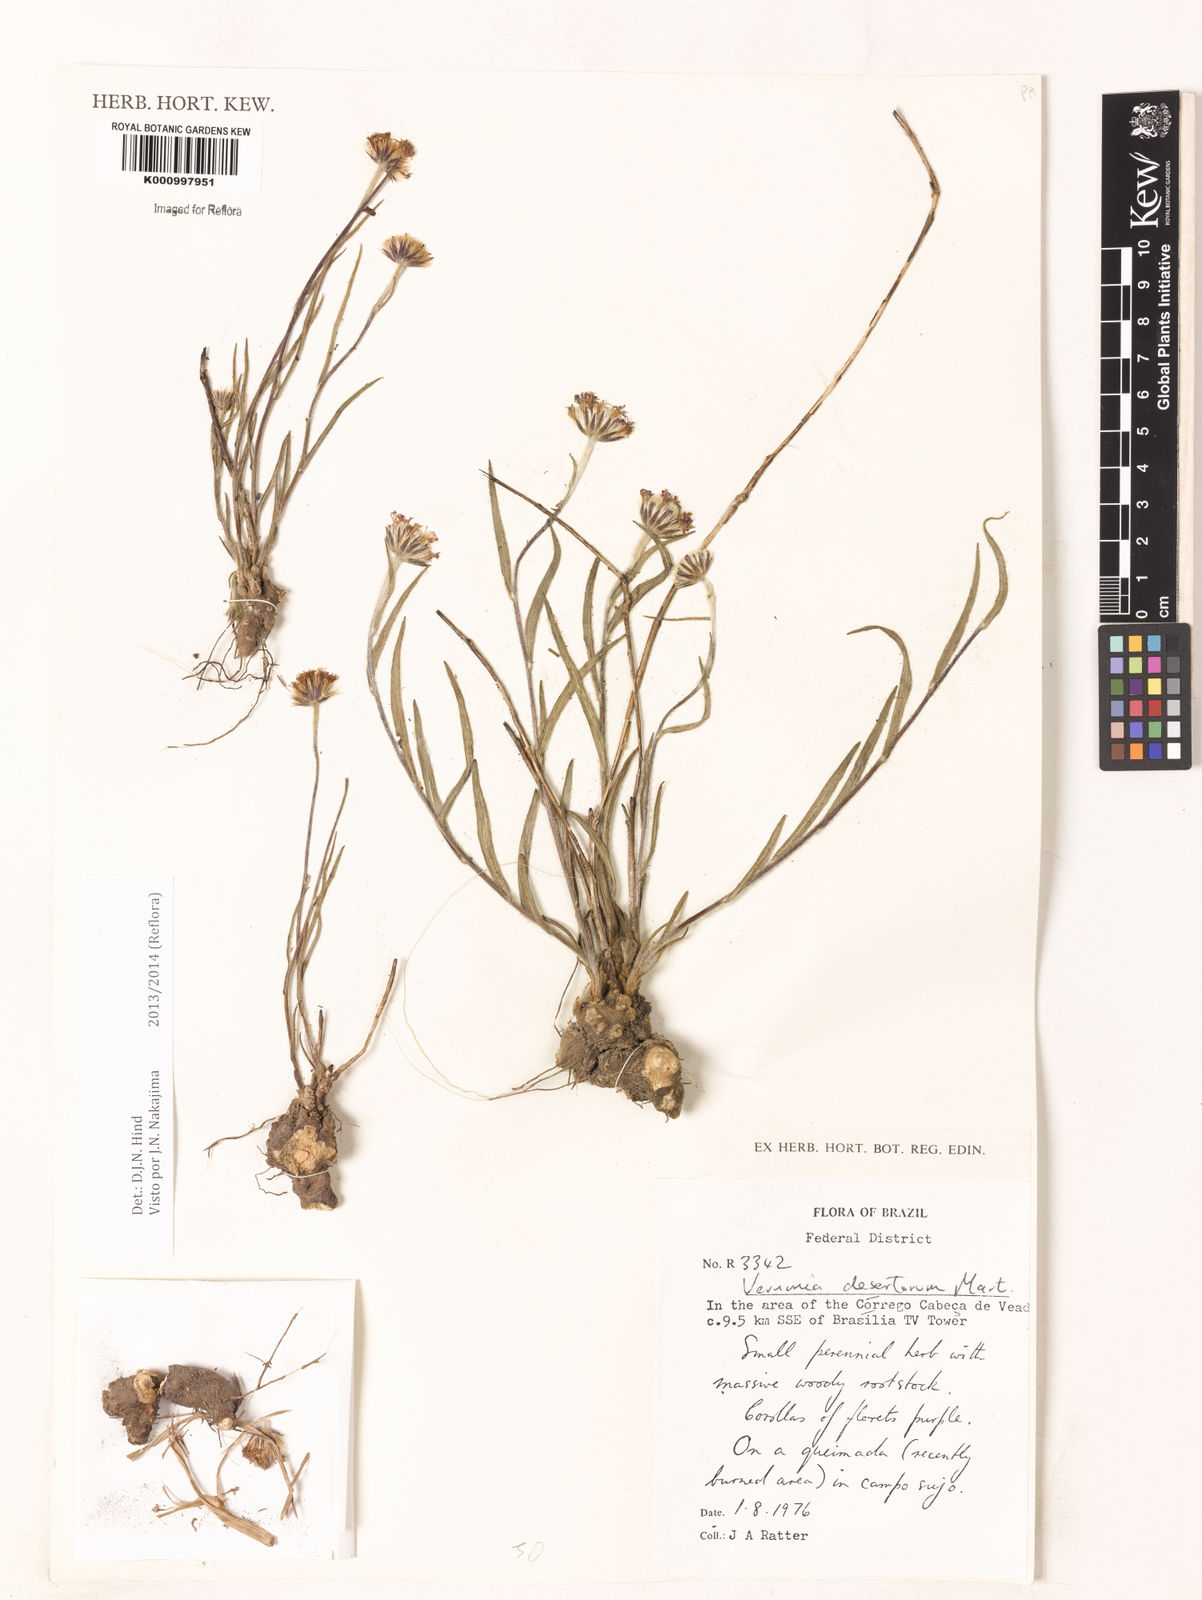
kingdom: Plantae
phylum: Tracheophyta
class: Magnoliopsida
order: Asterales
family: Asteraceae
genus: Chrysolaena
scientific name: Chrysolaena desertorum
